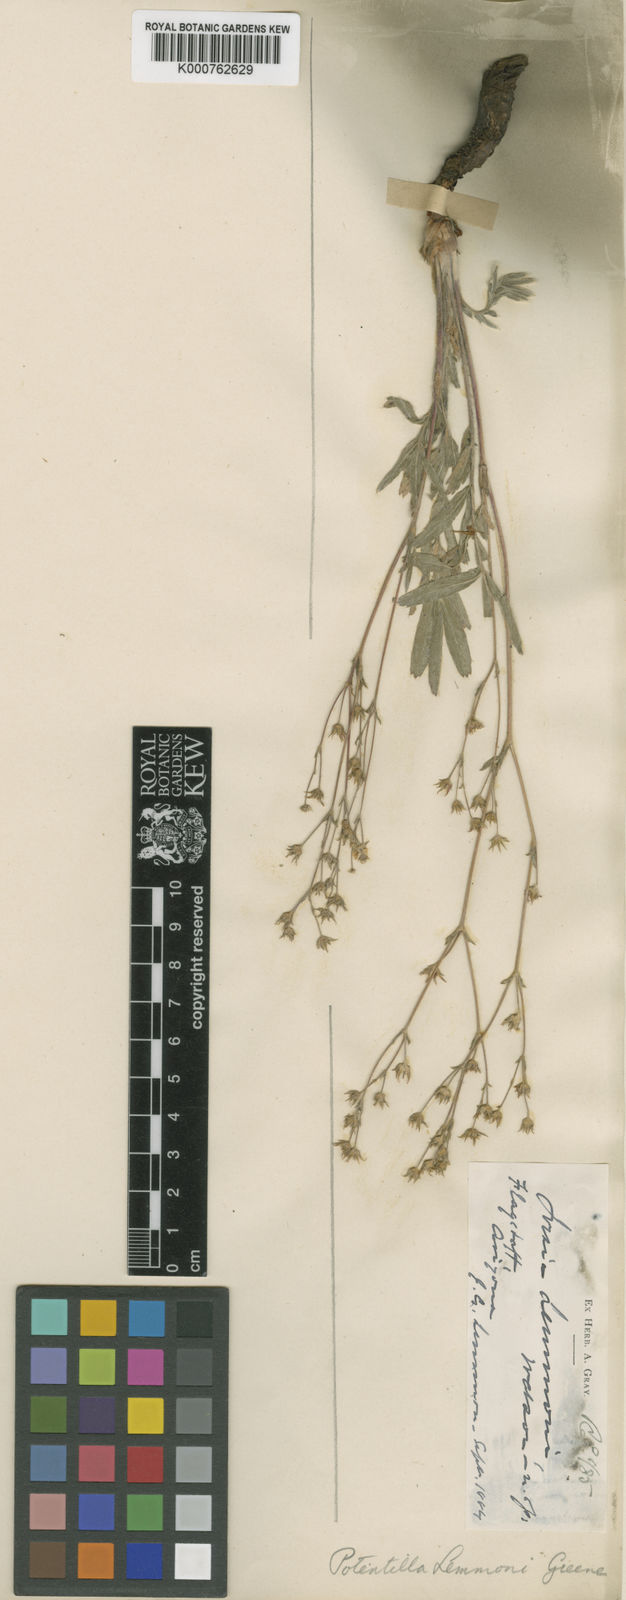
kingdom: Plantae
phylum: Tracheophyta
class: Magnoliopsida
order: Rosales
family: Rosaceae
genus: Potentilla
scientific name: Potentilla crinita
